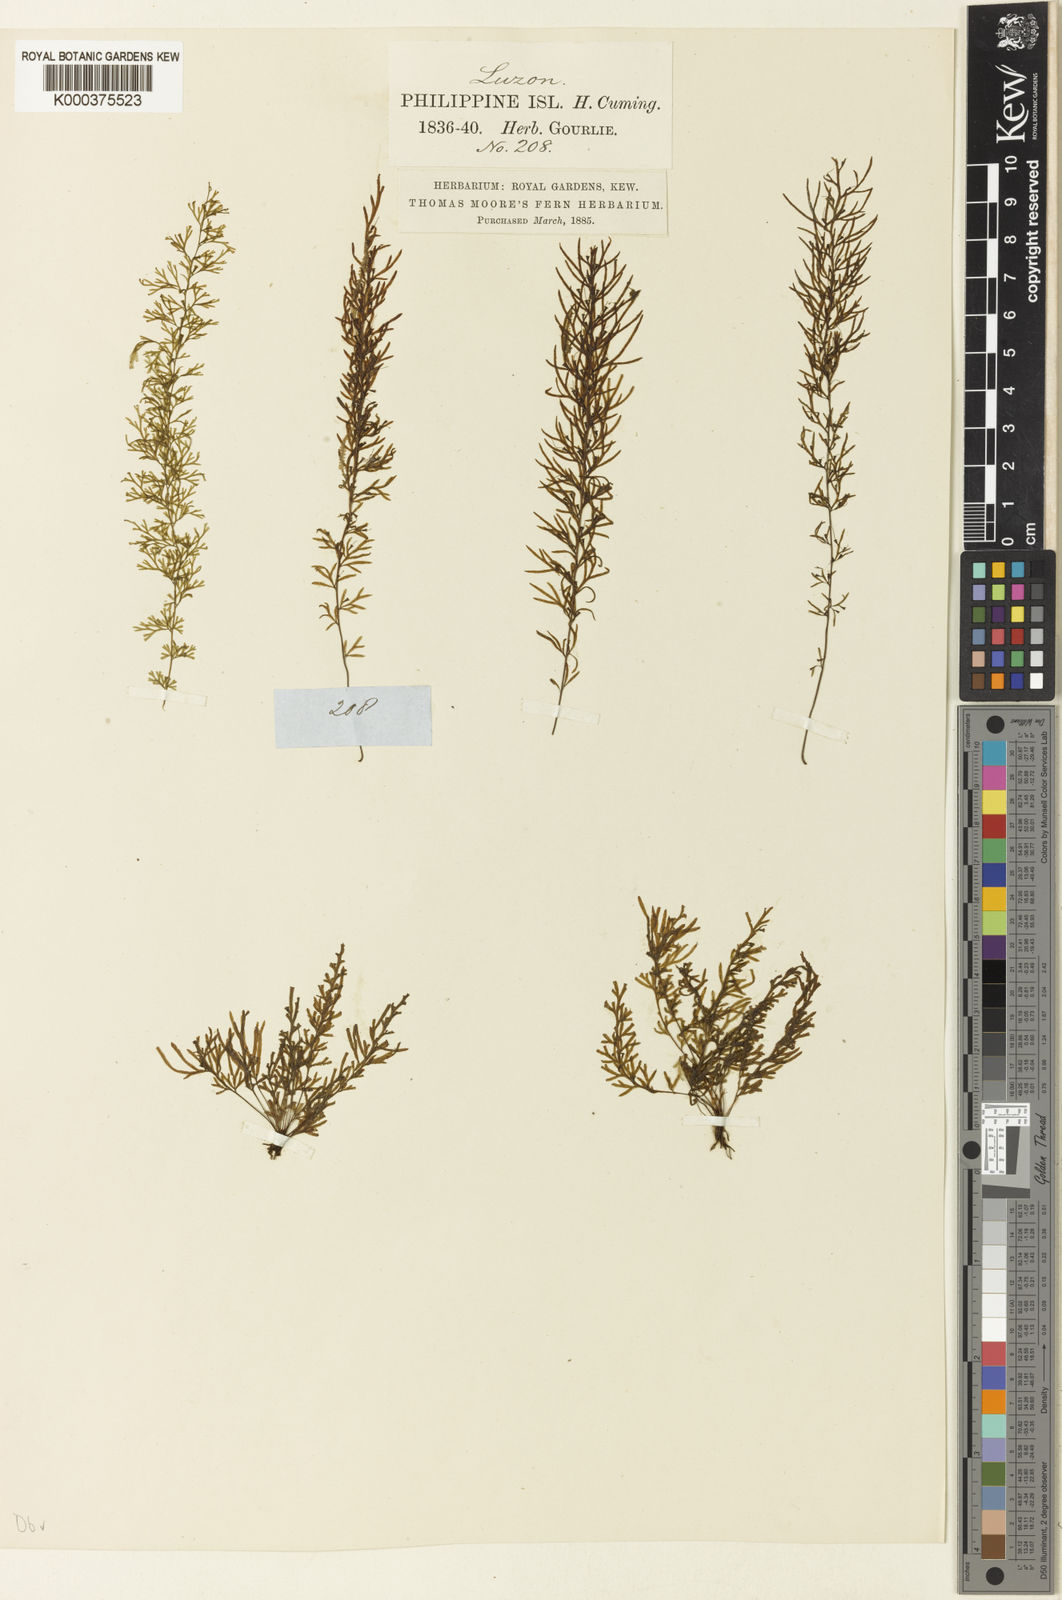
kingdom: Plantae
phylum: Tracheophyta
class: Polypodiopsida
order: Hymenophyllales
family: Hymenophyllaceae
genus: Abrodictyum
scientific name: Abrodictyum cumingii
